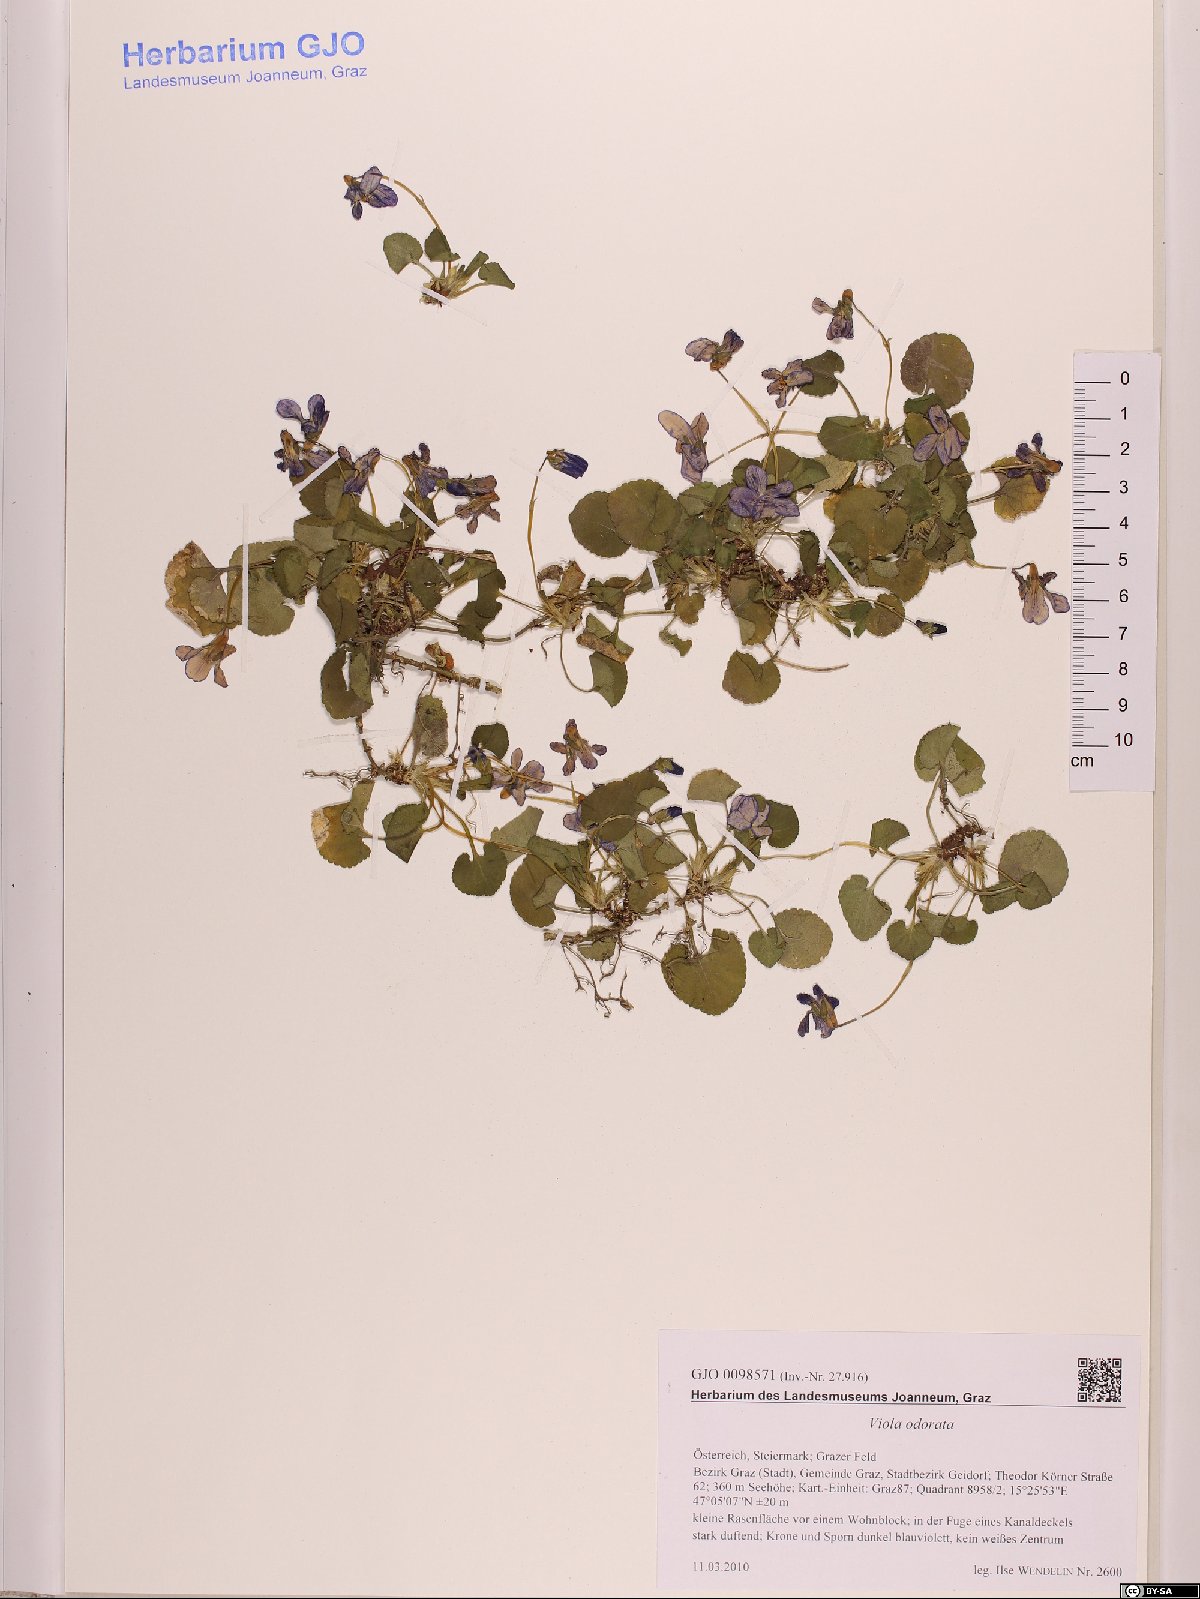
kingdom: Plantae
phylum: Tracheophyta
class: Magnoliopsida
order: Malpighiales
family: Violaceae
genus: Viola
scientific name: Viola odorata
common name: Sweet violet
